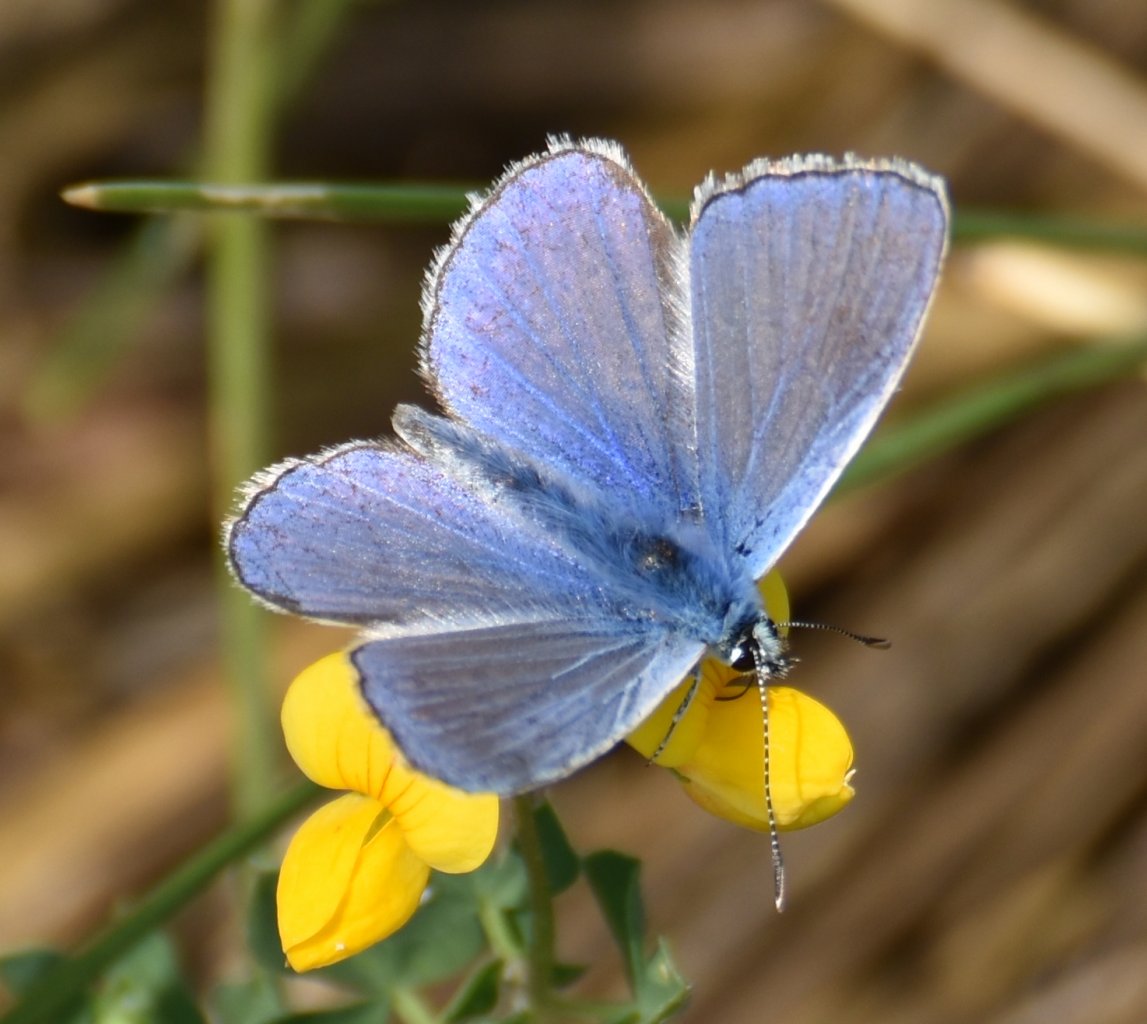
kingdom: Animalia
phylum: Arthropoda
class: Insecta
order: Lepidoptera
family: Lycaenidae
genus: Polyommatus
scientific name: Polyommatus icarus
